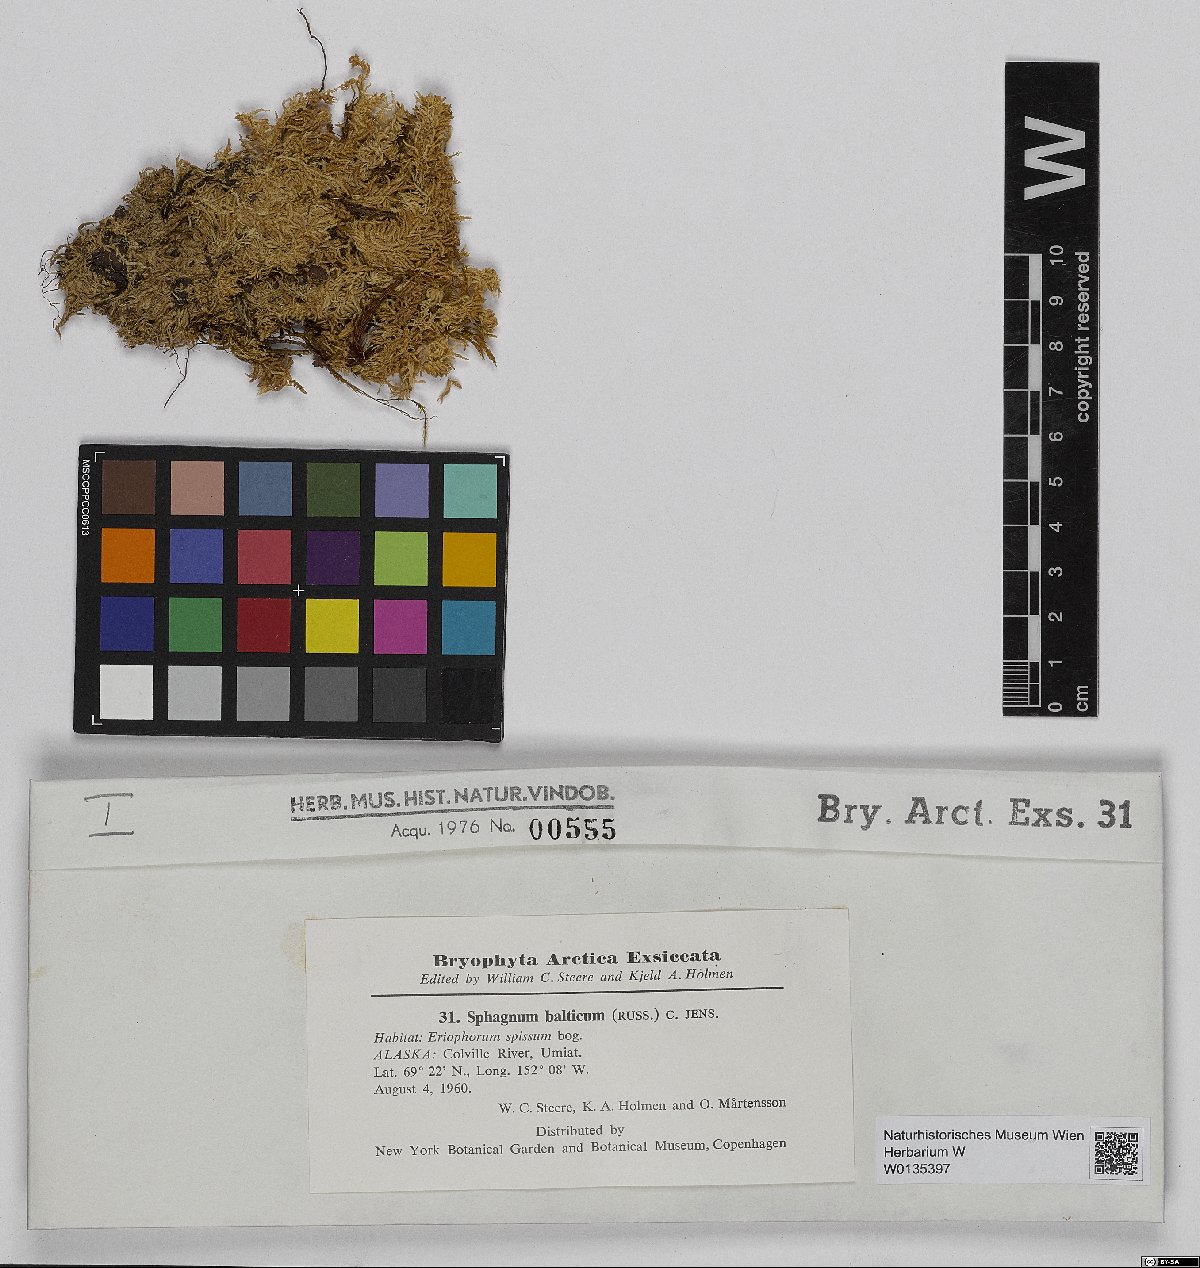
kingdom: Plantae
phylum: Bryophyta
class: Sphagnopsida
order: Sphagnales
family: Sphagnaceae
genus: Sphagnum
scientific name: Sphagnum balticum
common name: Baltic bog-moss
